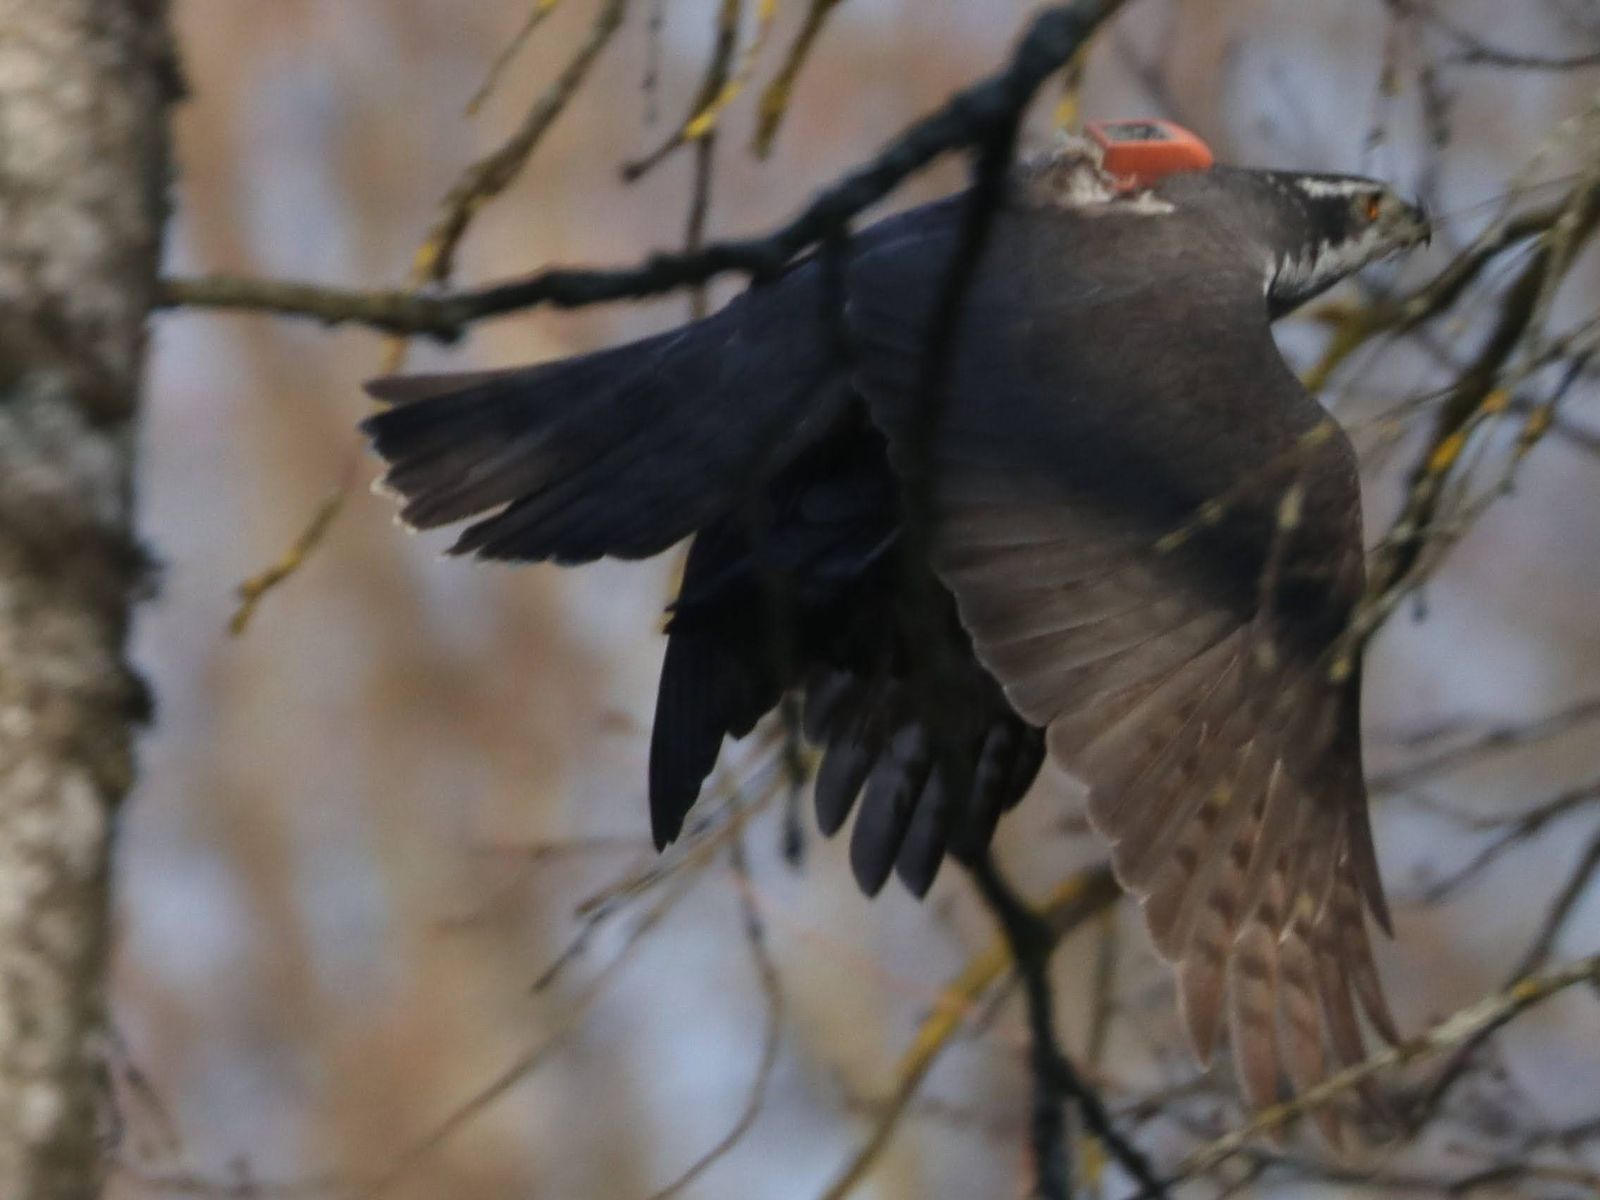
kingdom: Animalia
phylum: Chordata
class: Aves
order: Accipitriformes
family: Accipitridae
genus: Accipiter
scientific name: Accipiter gentilis
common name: Northern goshawk
